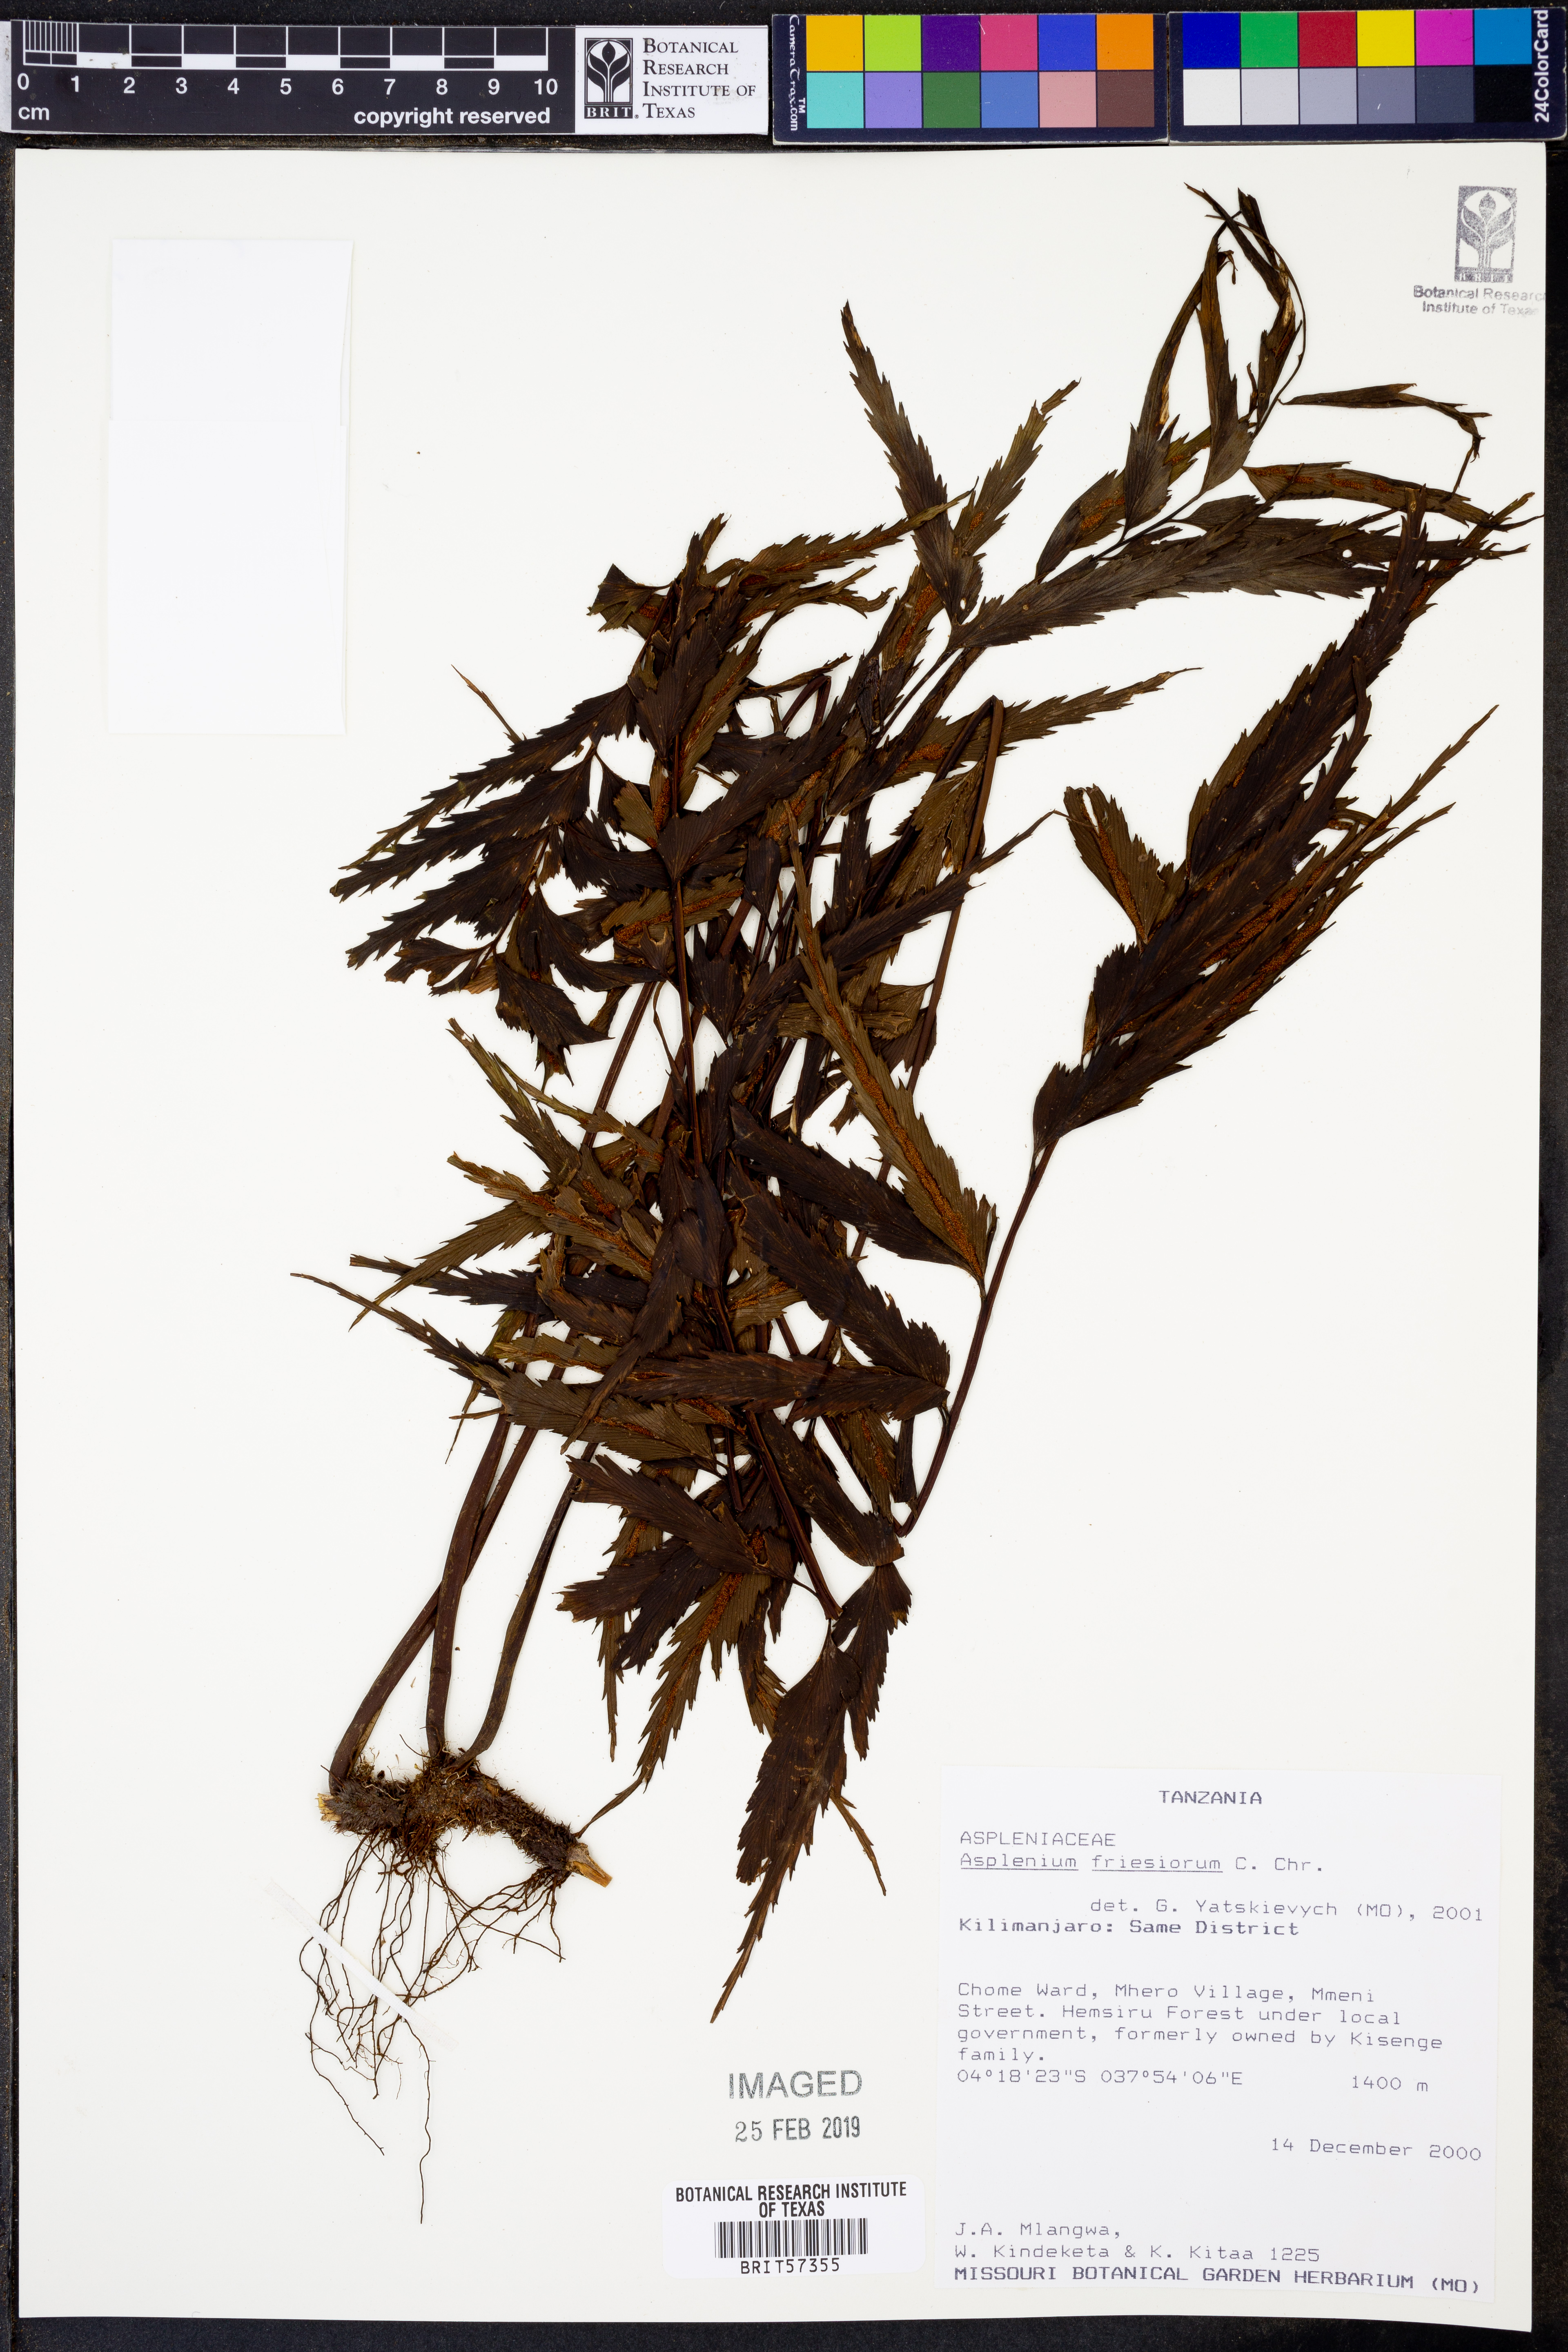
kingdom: Plantae
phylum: Tracheophyta
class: Polypodiopsida
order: Polypodiales
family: Aspleniaceae
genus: Asplenium
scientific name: Asplenium gueinzianum
